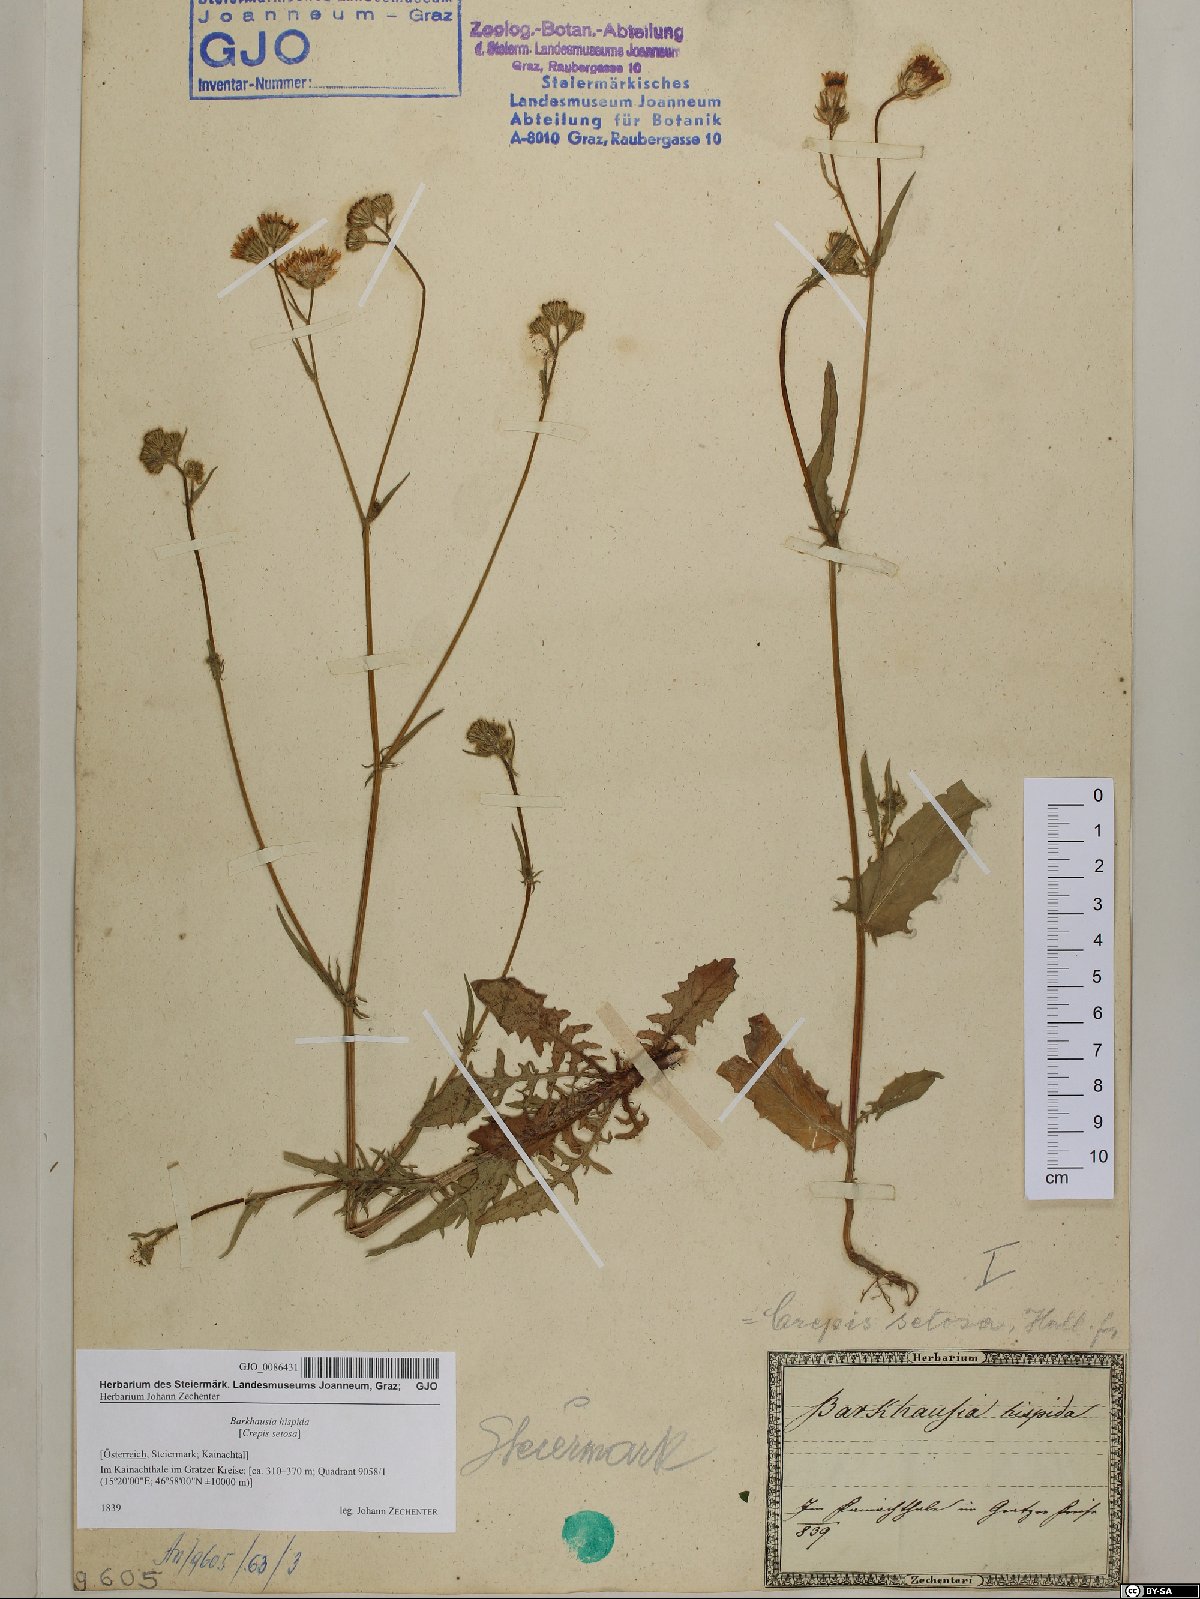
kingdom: Plantae
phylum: Tracheophyta
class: Magnoliopsida
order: Asterales
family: Asteraceae
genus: Crepis
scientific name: Crepis setosa
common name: Bristly hawk's-beard
